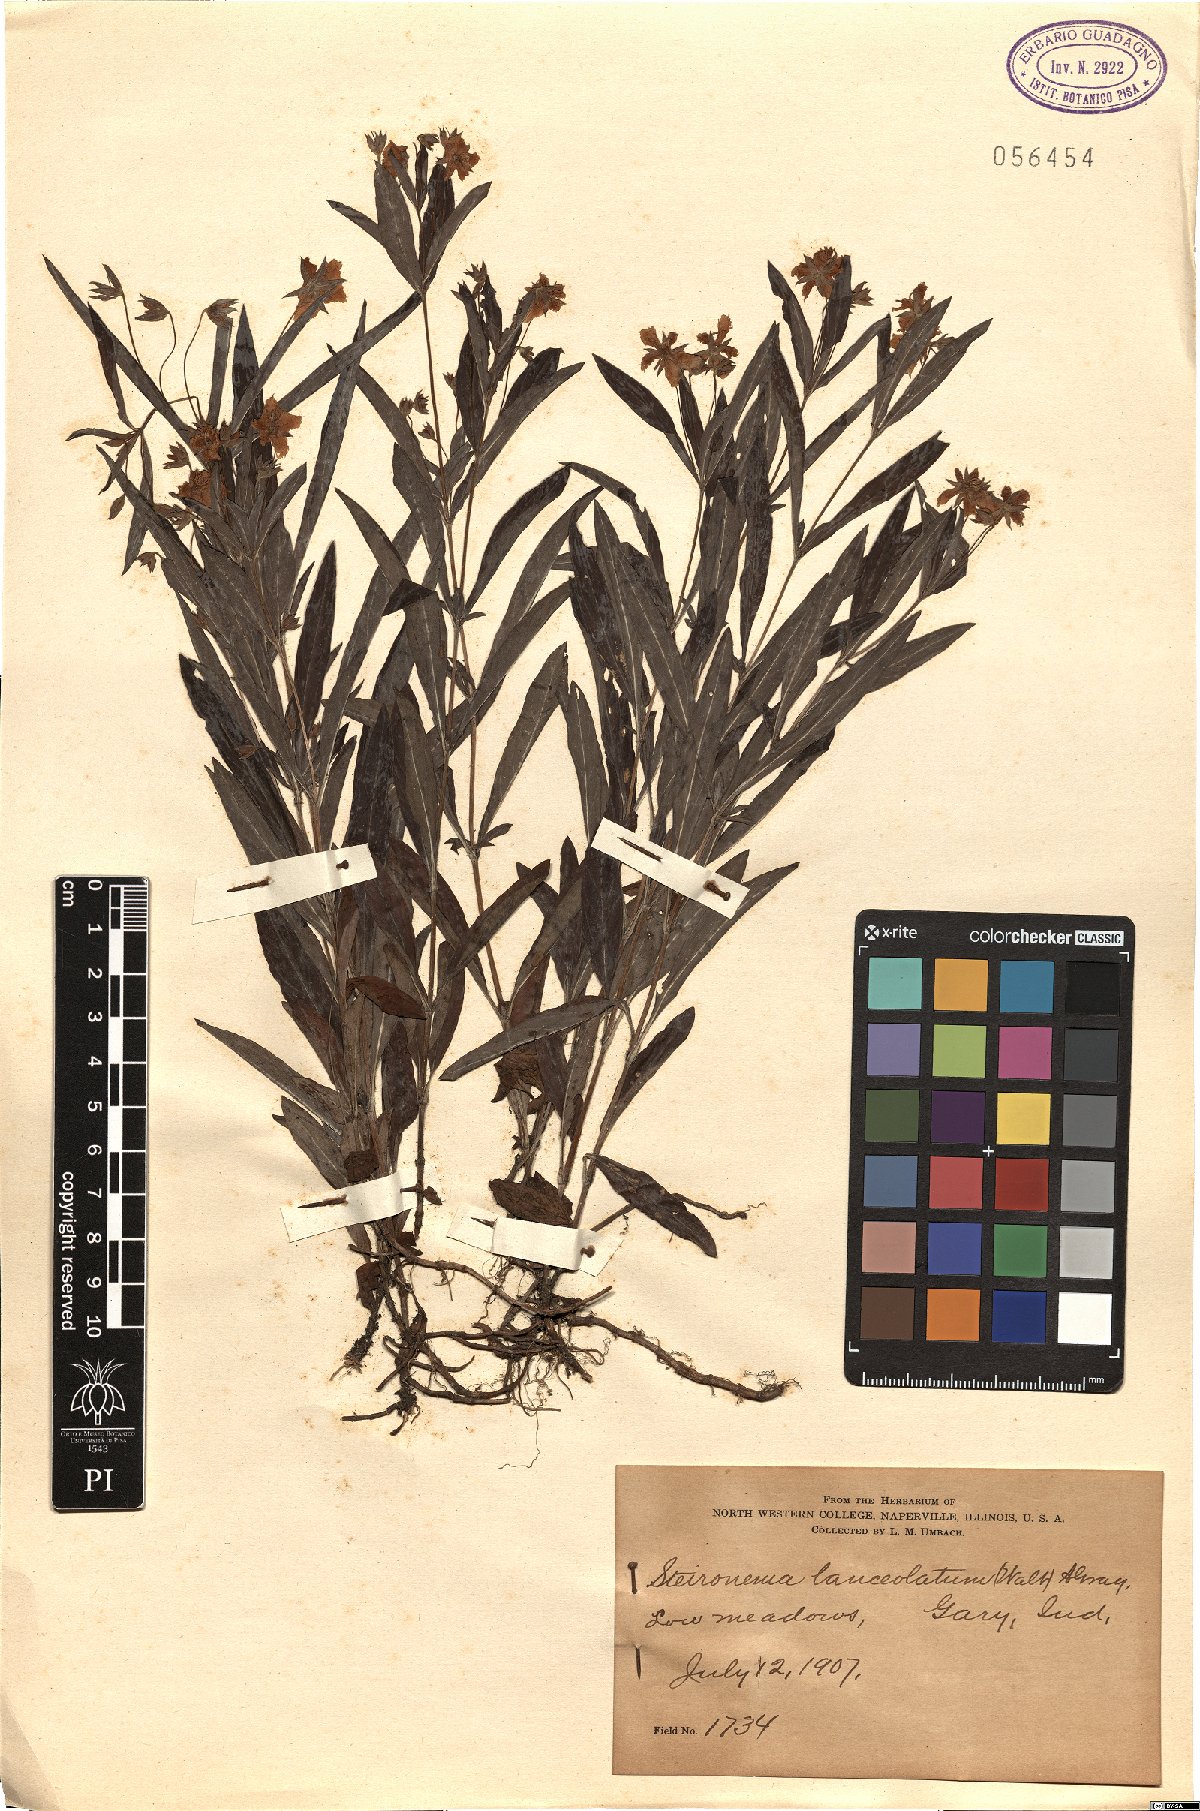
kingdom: Plantae
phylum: Tracheophyta
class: Magnoliopsida
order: Ericales
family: Primulaceae
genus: Lysimachia
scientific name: Lysimachia lanceolata
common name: Lance-leaved loosestrife
